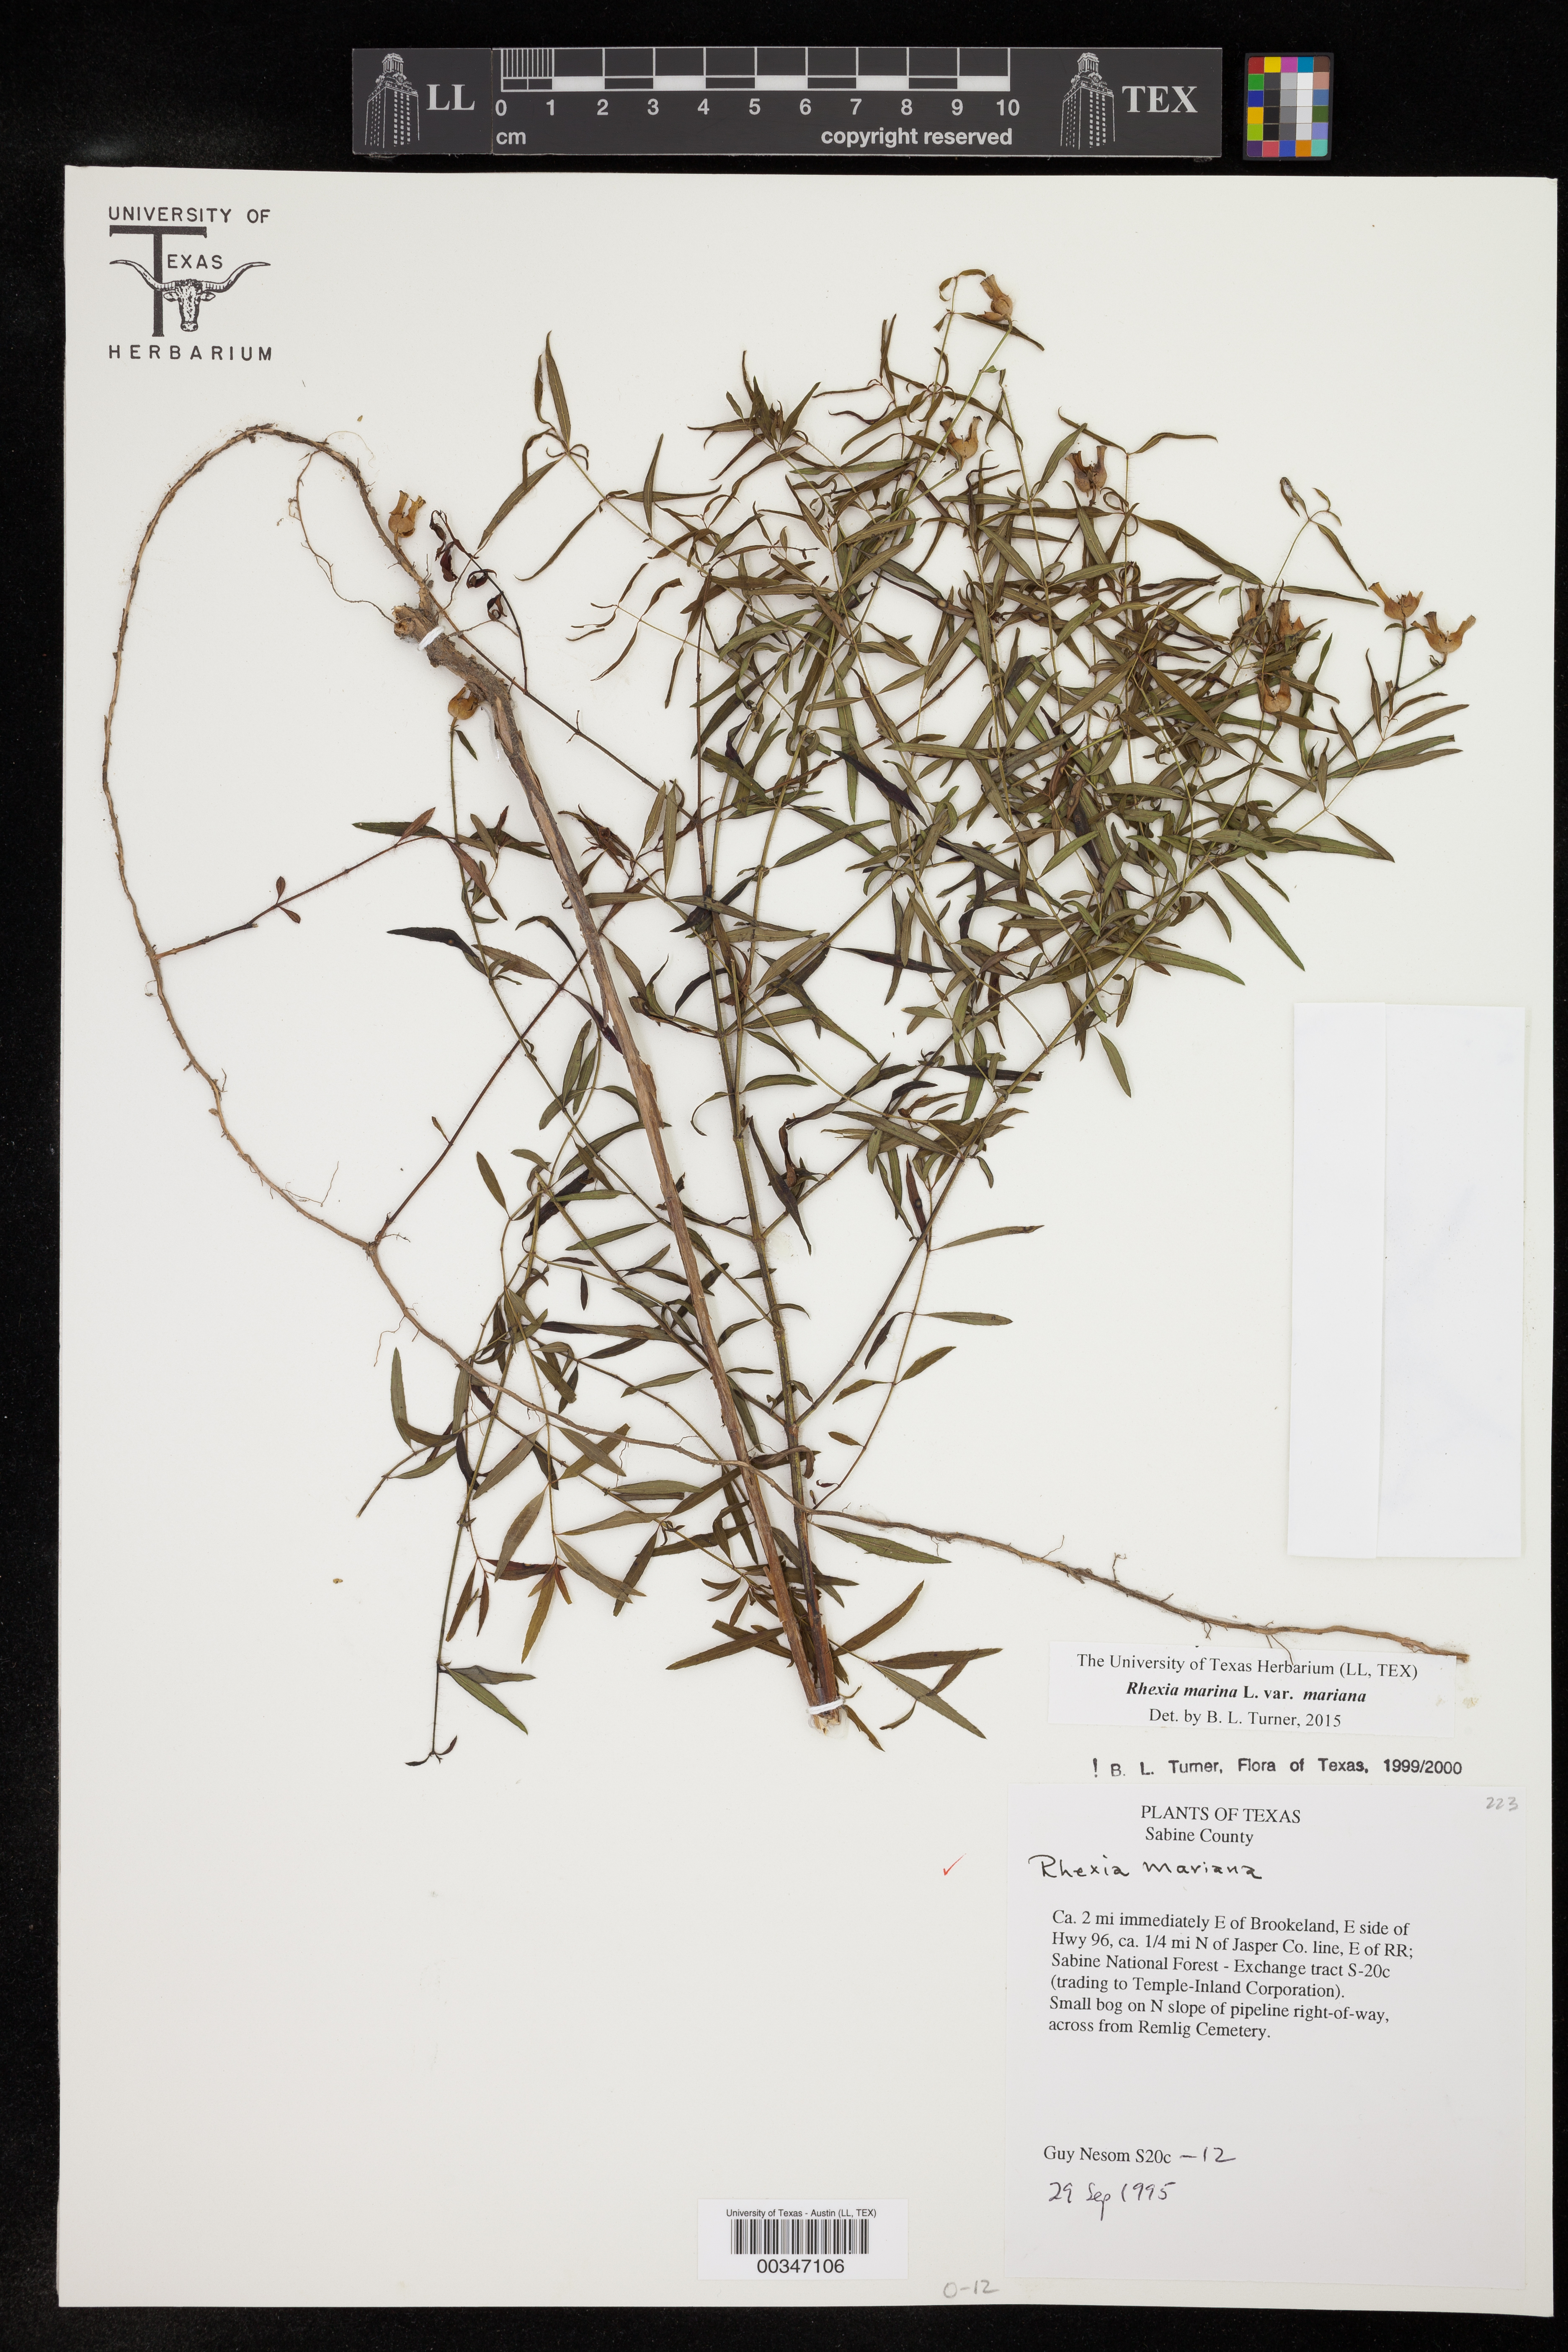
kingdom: Plantae
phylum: Tracheophyta
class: Magnoliopsida
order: Myrtales
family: Melastomataceae
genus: Rhexia
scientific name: Rhexia mariana
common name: Dull meadow-pitcher
